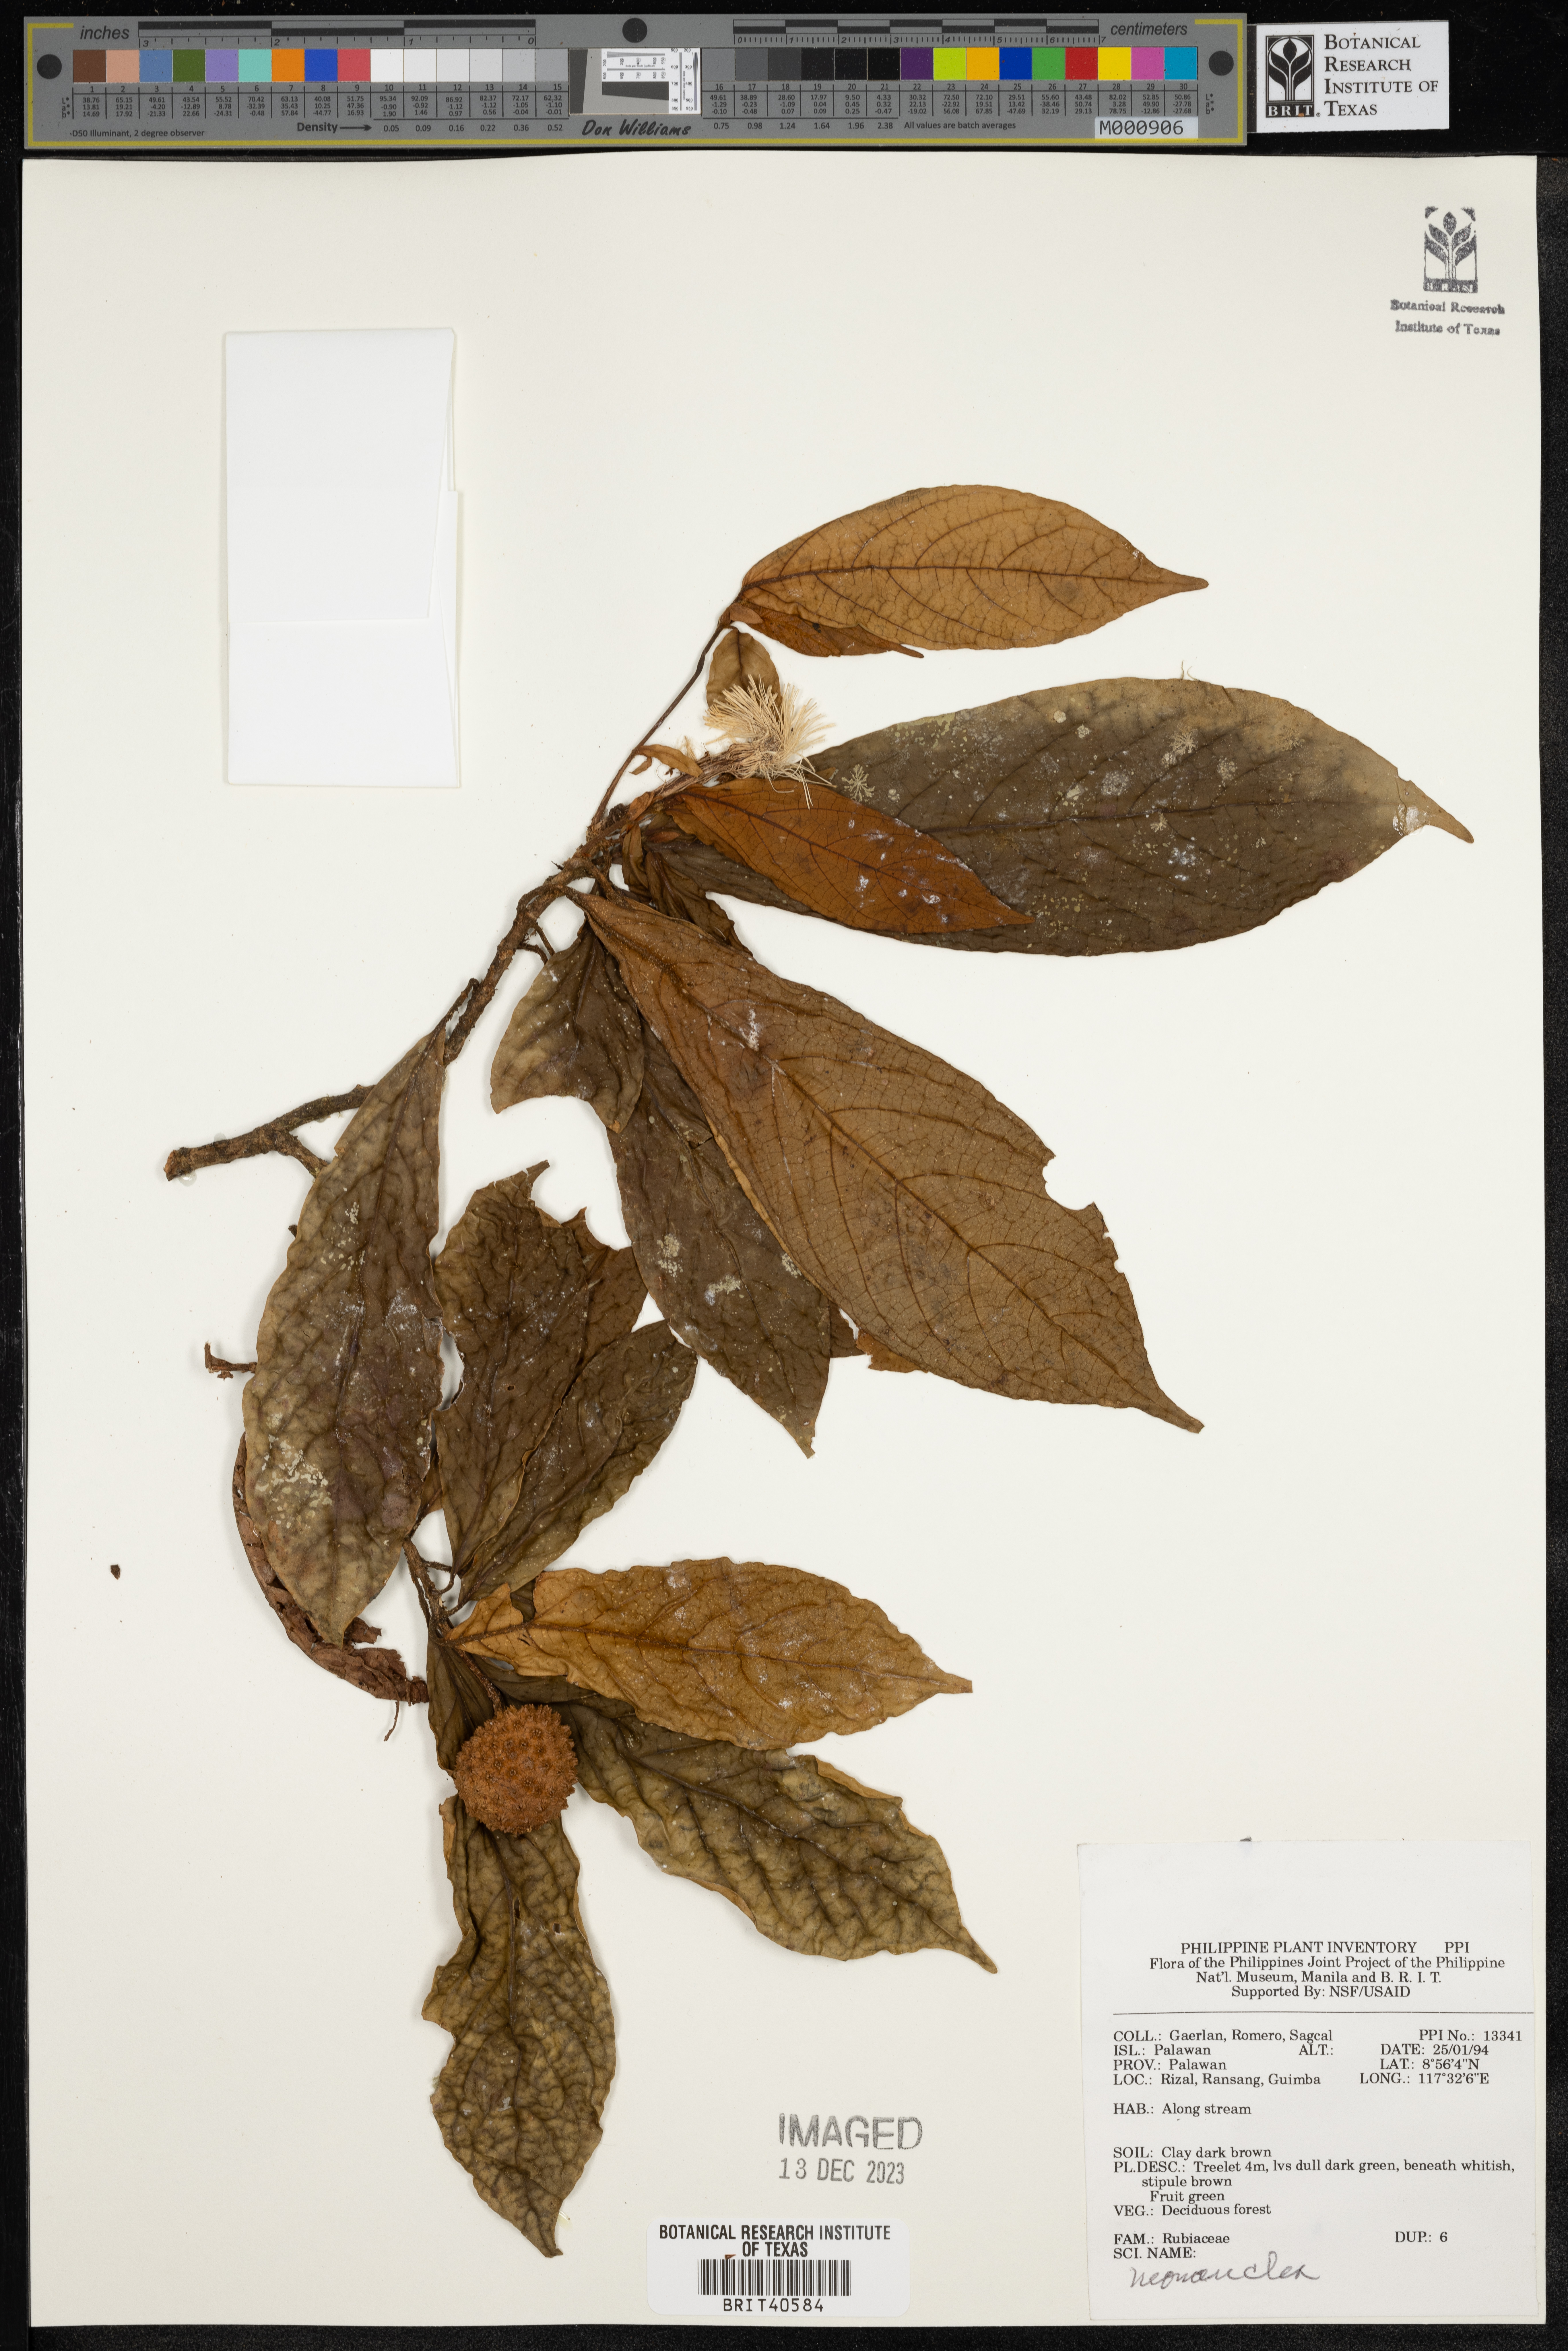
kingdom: Plantae
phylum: Tracheophyta
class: Magnoliopsida
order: Gentianales
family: Rubiaceae
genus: Neonauclea
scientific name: Neonauclea
